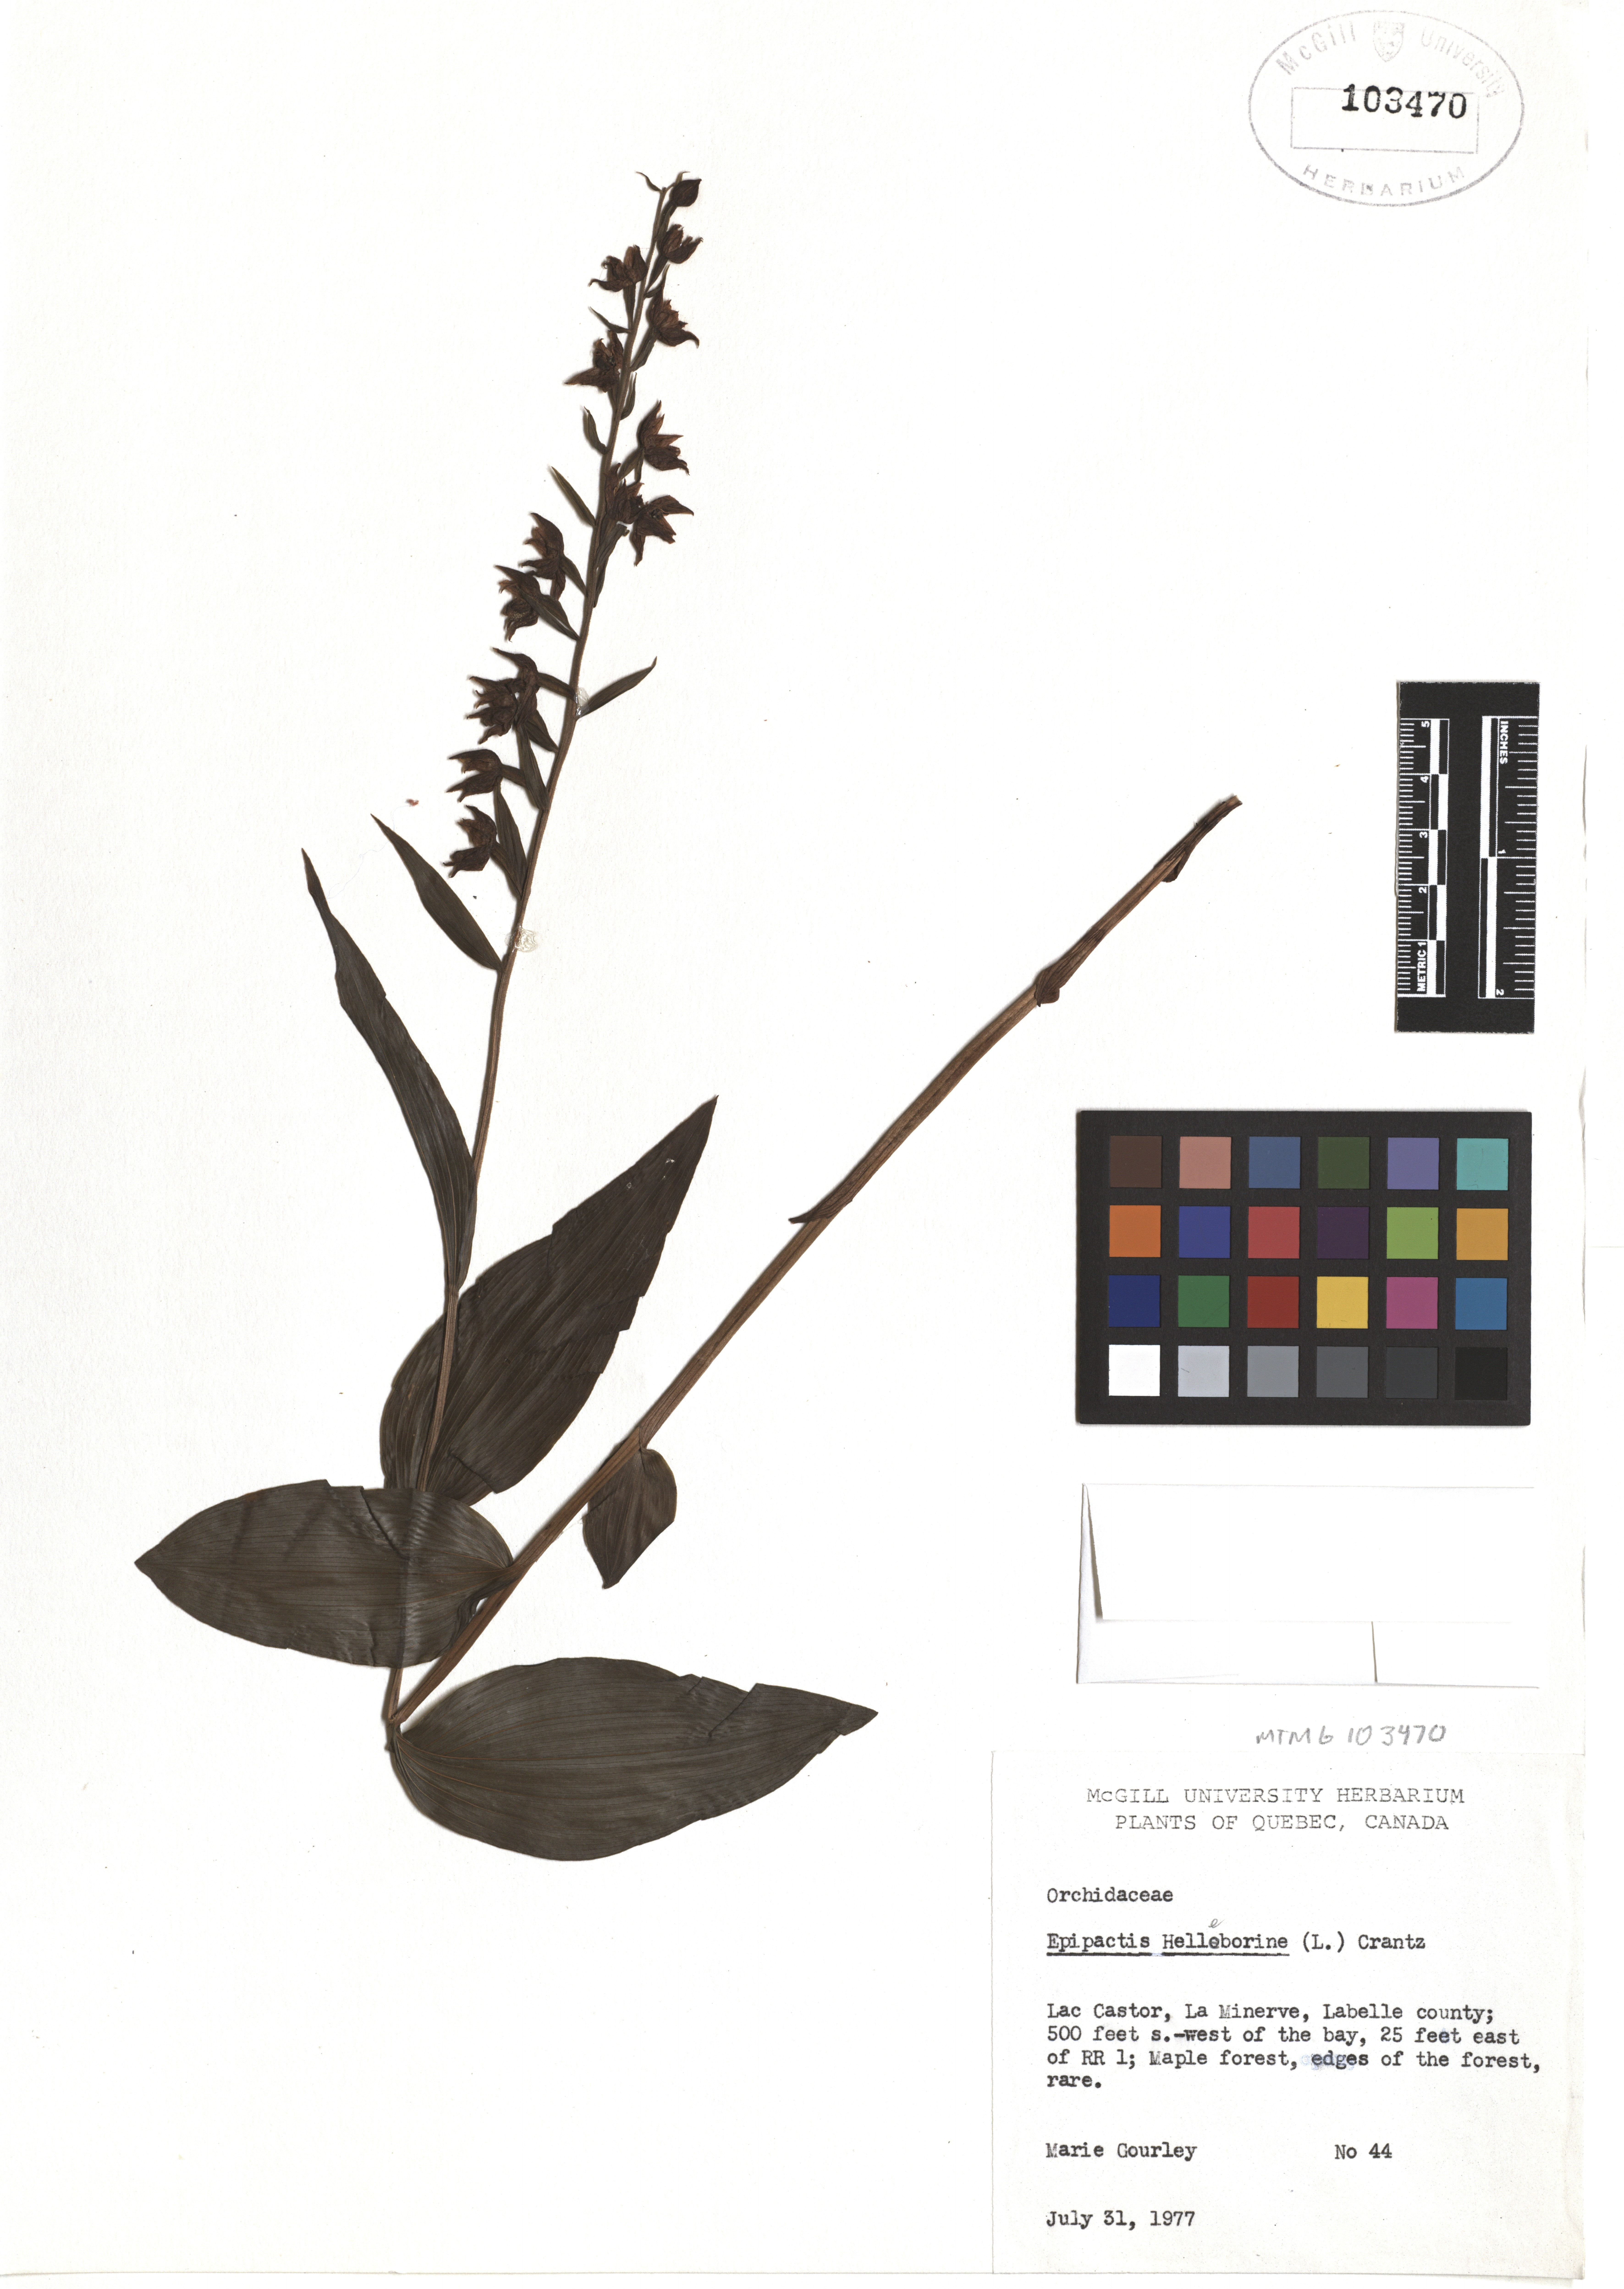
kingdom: Plantae
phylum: Tracheophyta
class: Liliopsida
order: Asparagales
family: Orchidaceae
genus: Epipactis
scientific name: Epipactis helleborine
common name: Broad-leaved helleborine
